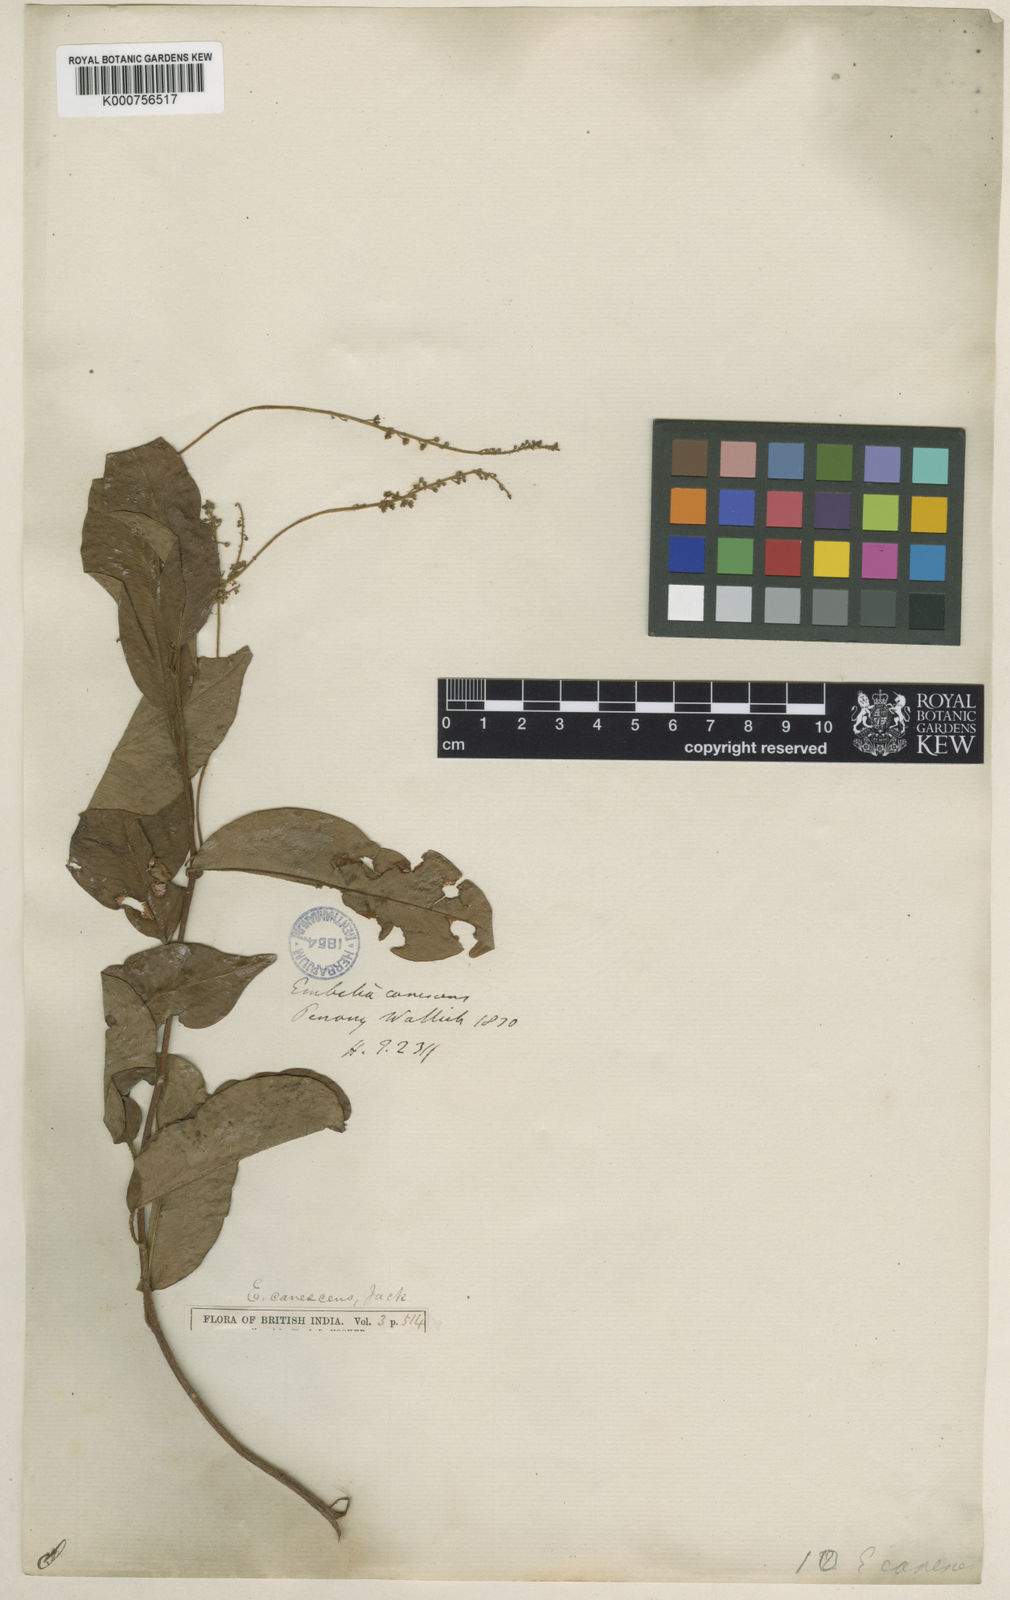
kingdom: Plantae
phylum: Tracheophyta
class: Magnoliopsida
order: Ericales
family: Primulaceae
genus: Embelia
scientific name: Embelia
